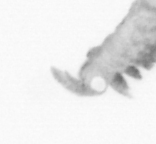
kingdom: Animalia
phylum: Annelida
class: Polychaeta
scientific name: Polychaeta
